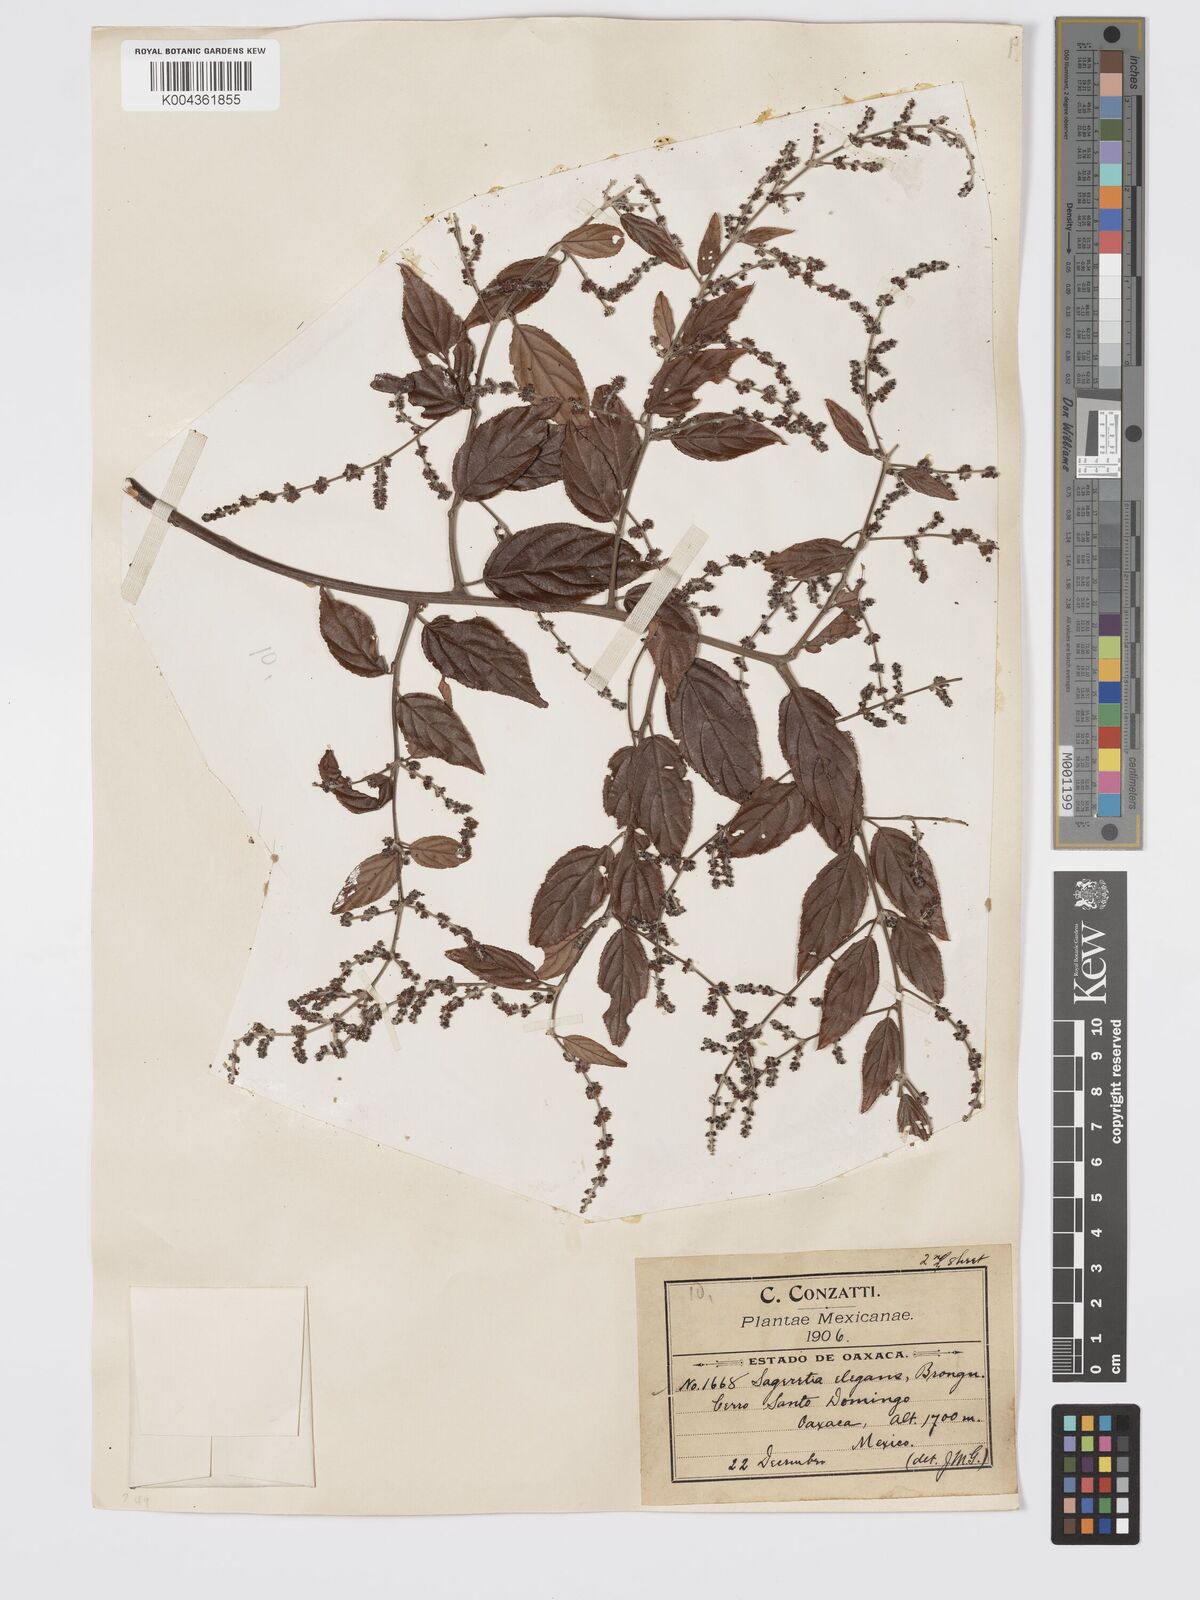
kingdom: Plantae
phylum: Tracheophyta
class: Magnoliopsida
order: Rosales
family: Rhamnaceae
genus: Sageretia
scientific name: Sageretia elegans
